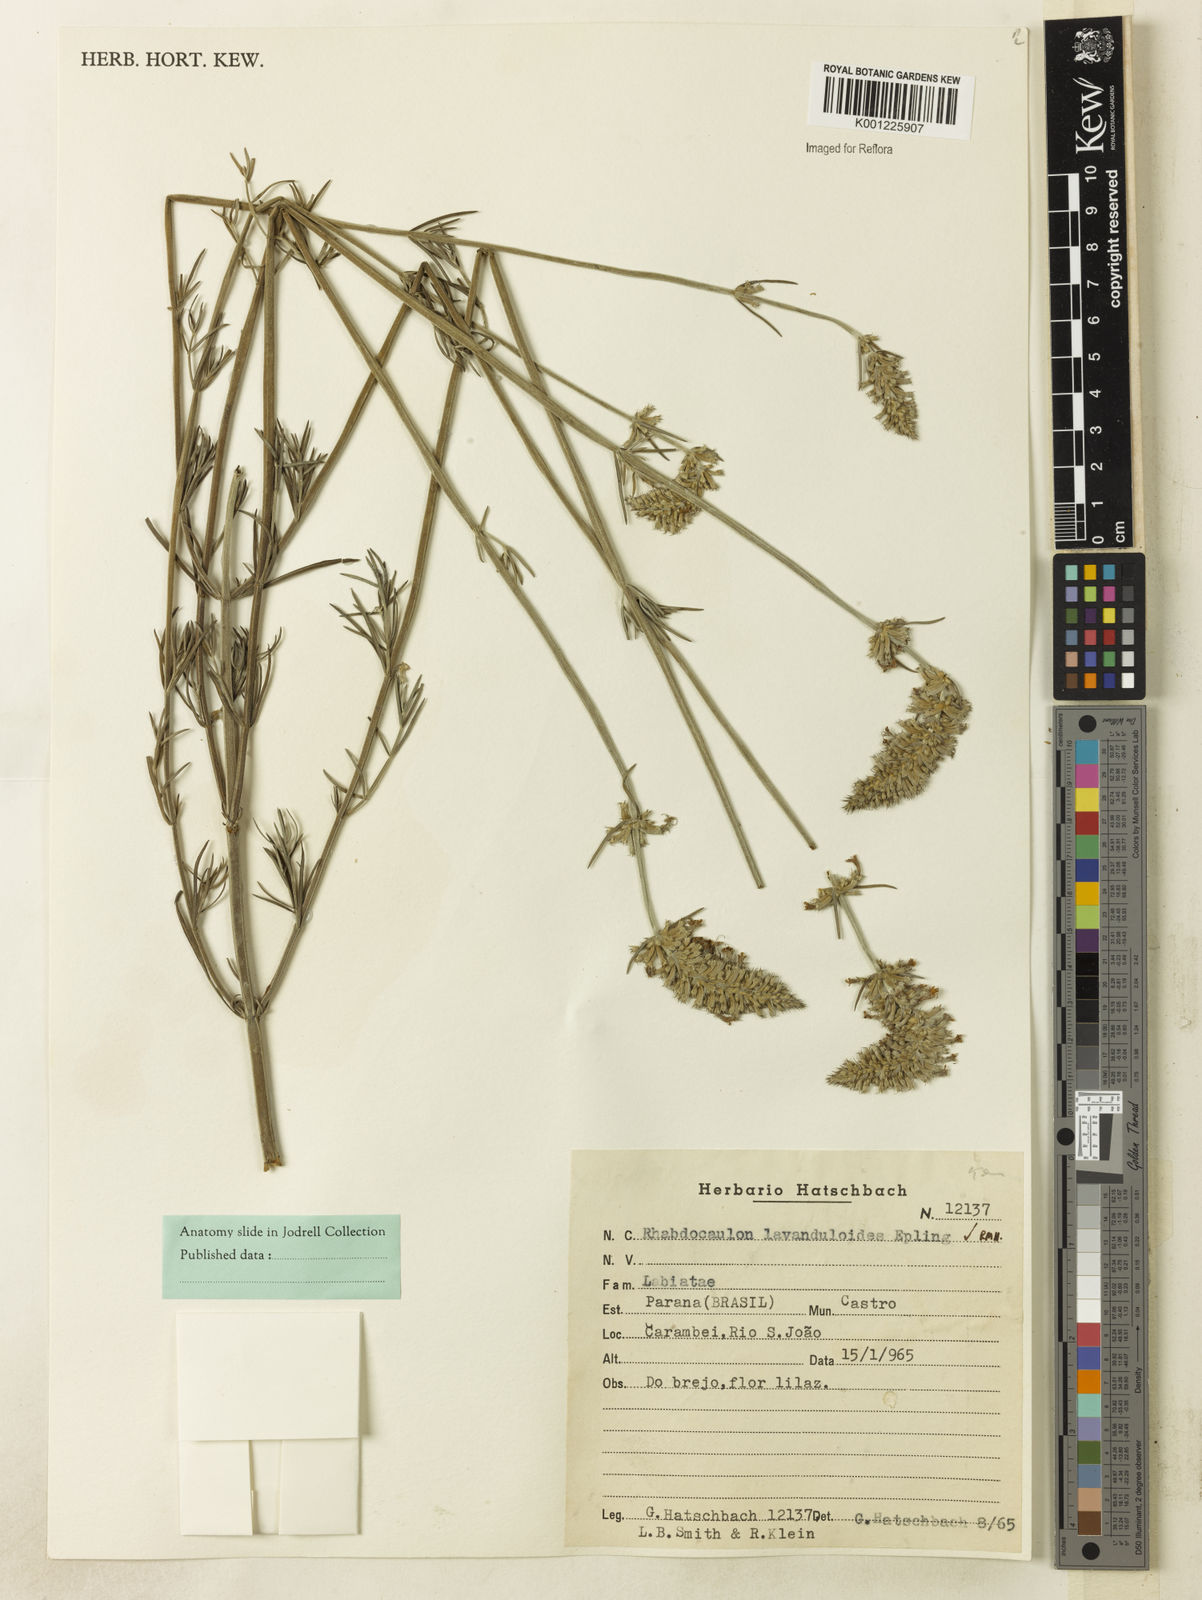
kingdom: Plantae
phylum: Tracheophyta
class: Magnoliopsida
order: Lamiales
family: Lamiaceae
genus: Rhabdocaulon
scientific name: Rhabdocaulon lavanduloides
